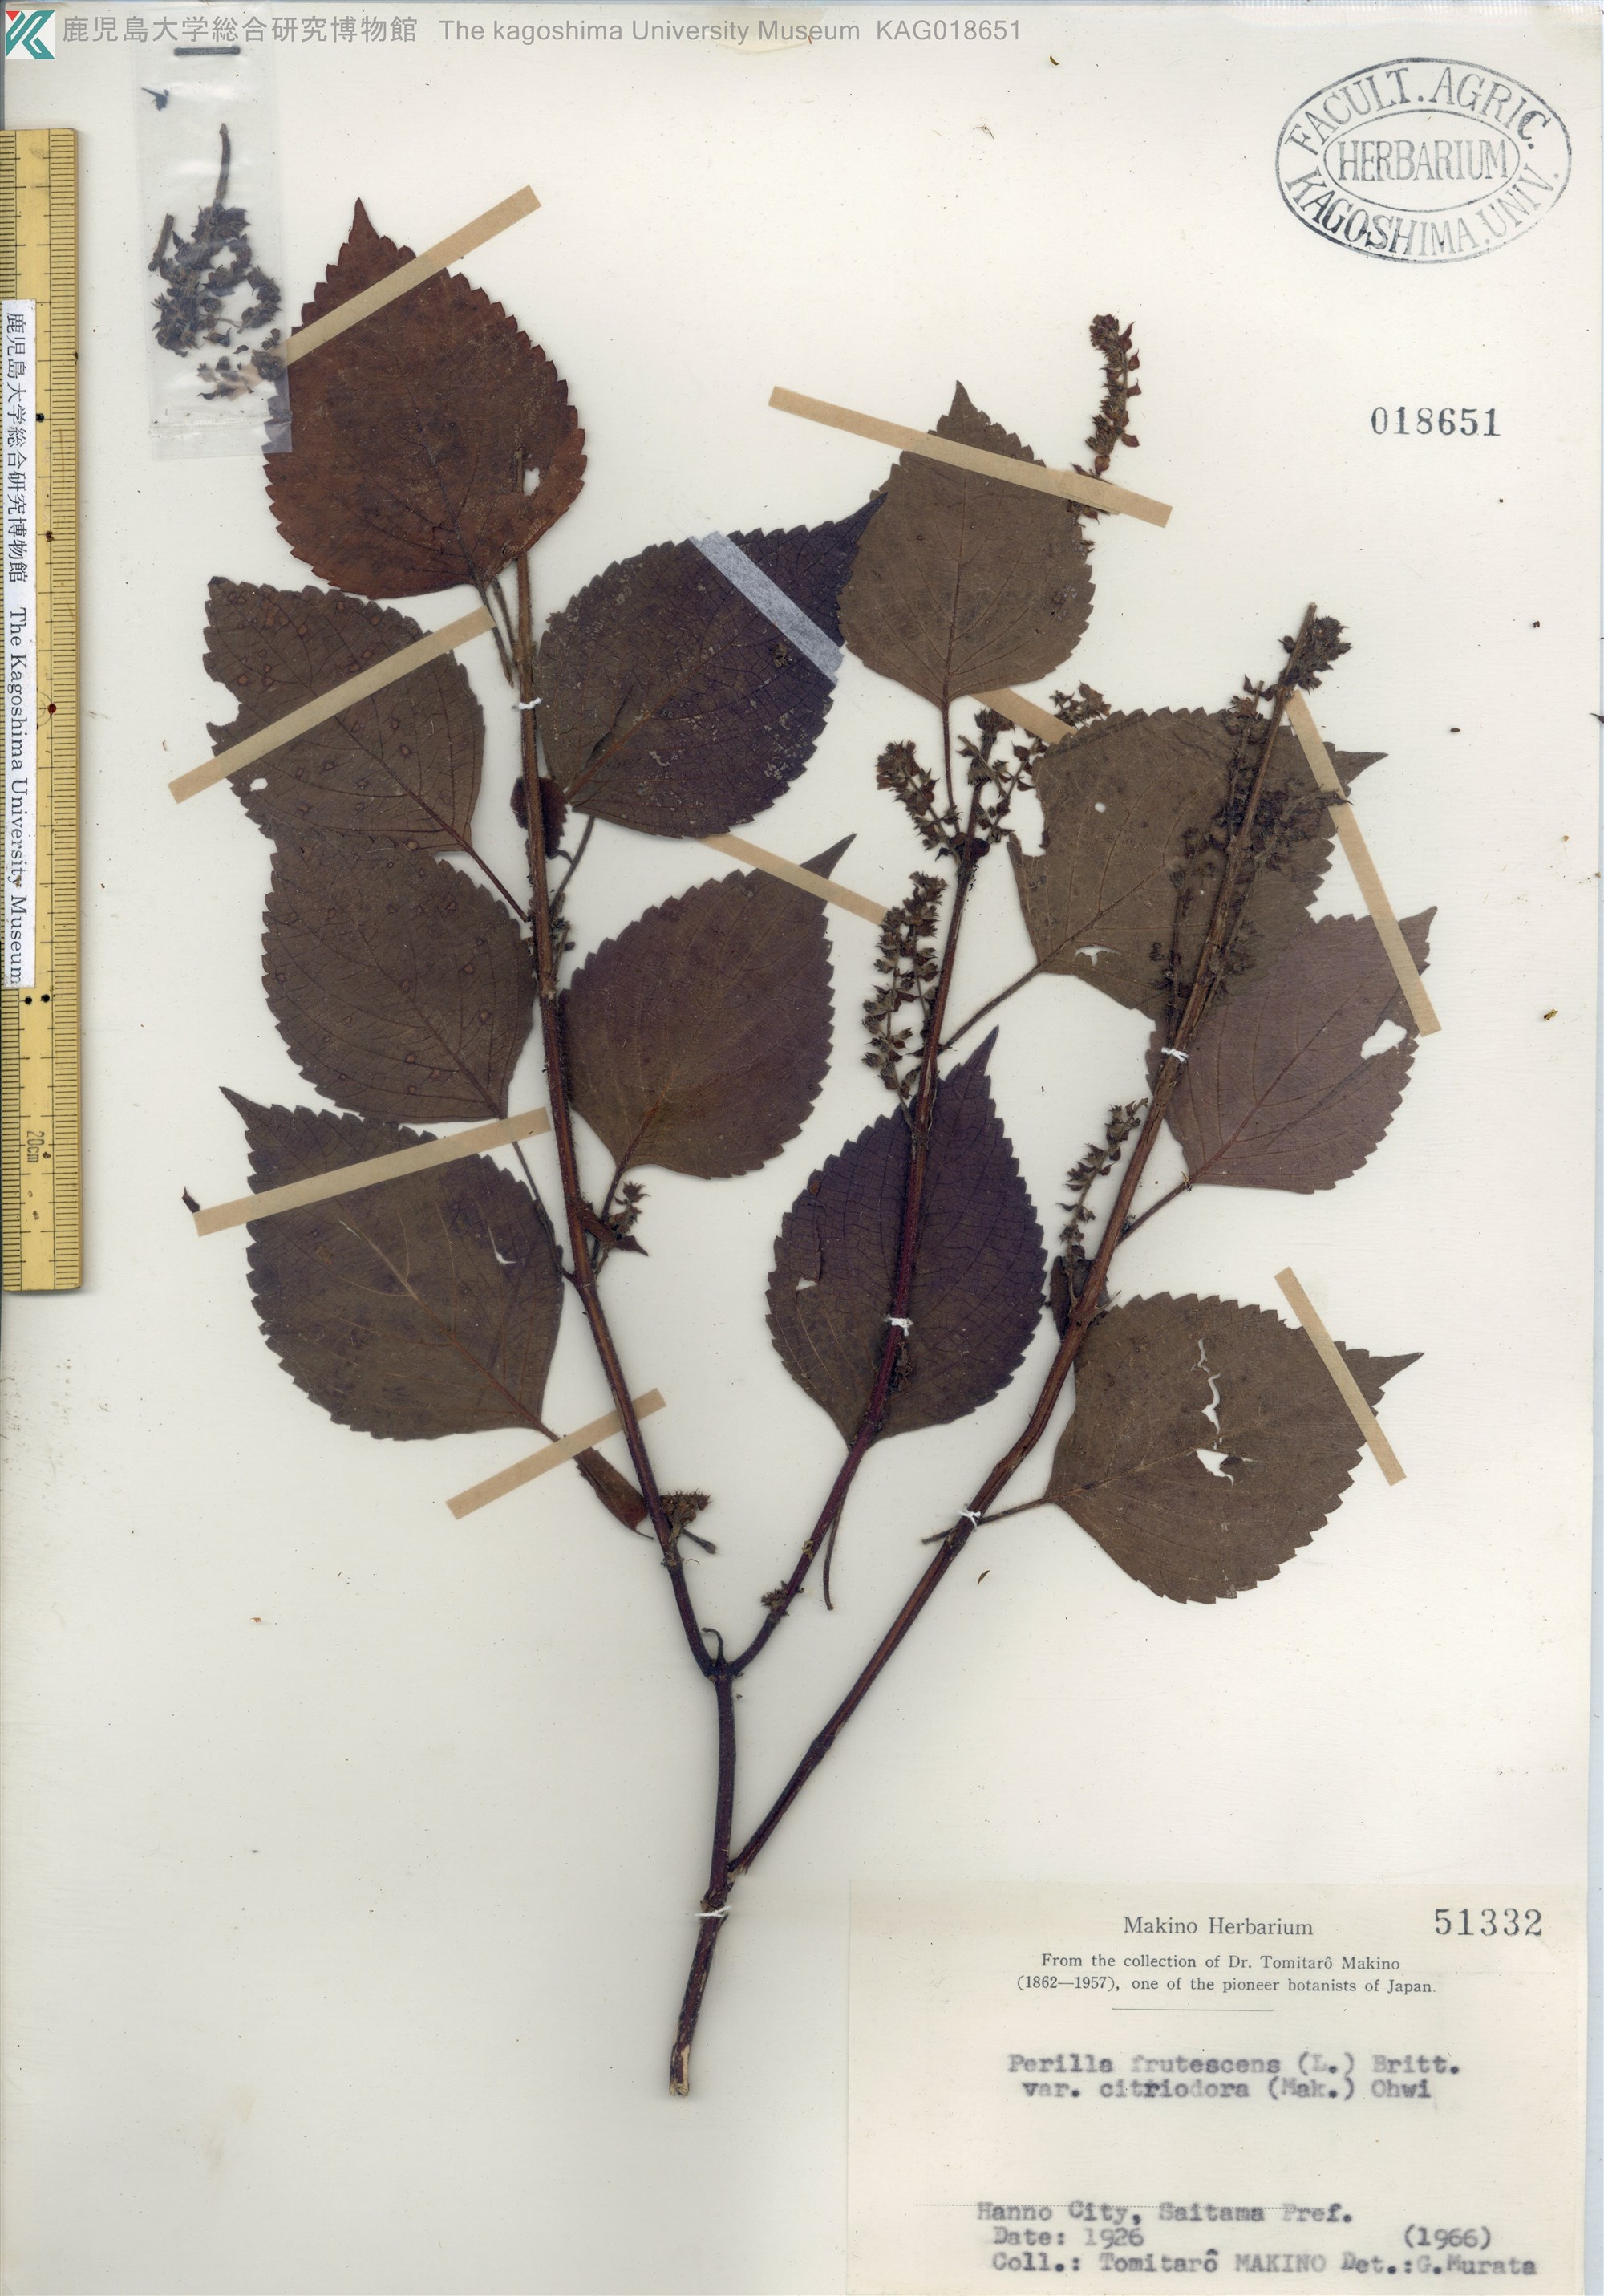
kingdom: Plantae
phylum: Tracheophyta
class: Magnoliopsida
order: Lamiales
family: Lamiaceae
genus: Perilla
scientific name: Perilla frutescens
